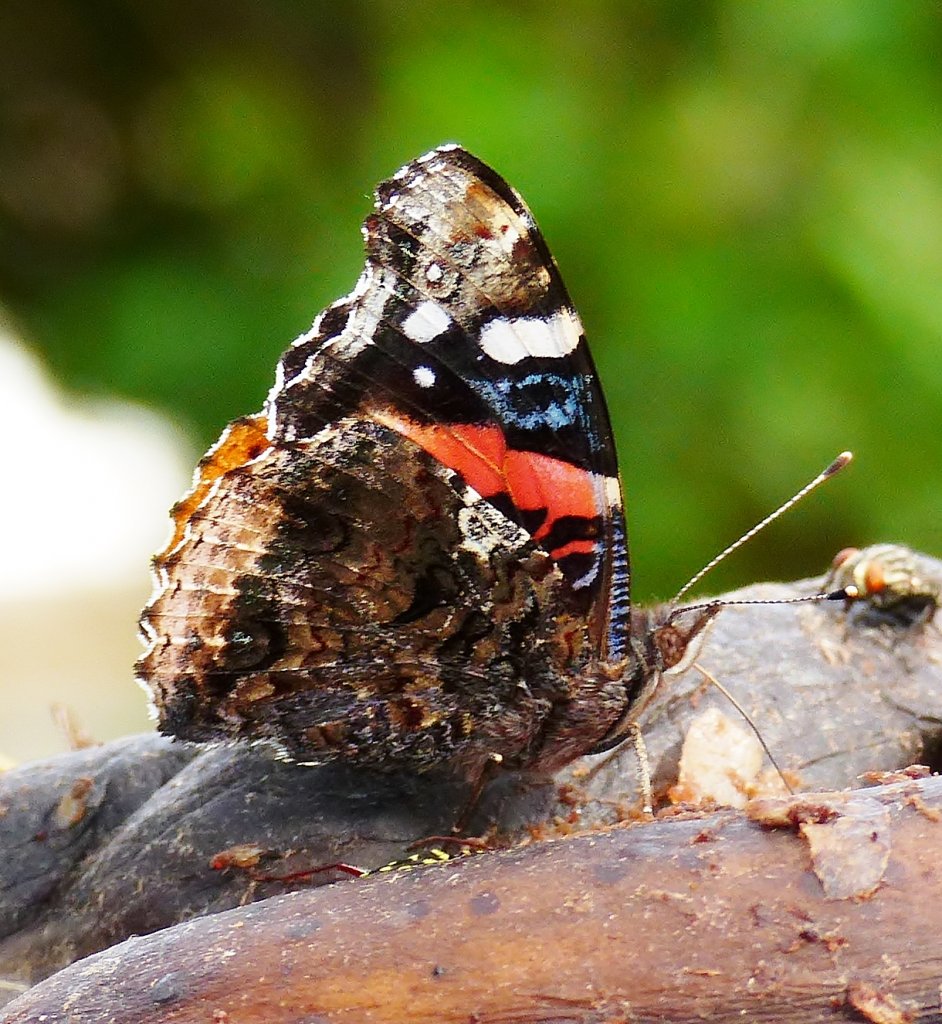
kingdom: Animalia
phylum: Arthropoda
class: Insecta
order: Lepidoptera
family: Nymphalidae
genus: Vanessa
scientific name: Vanessa atalanta
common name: Red Admiral
